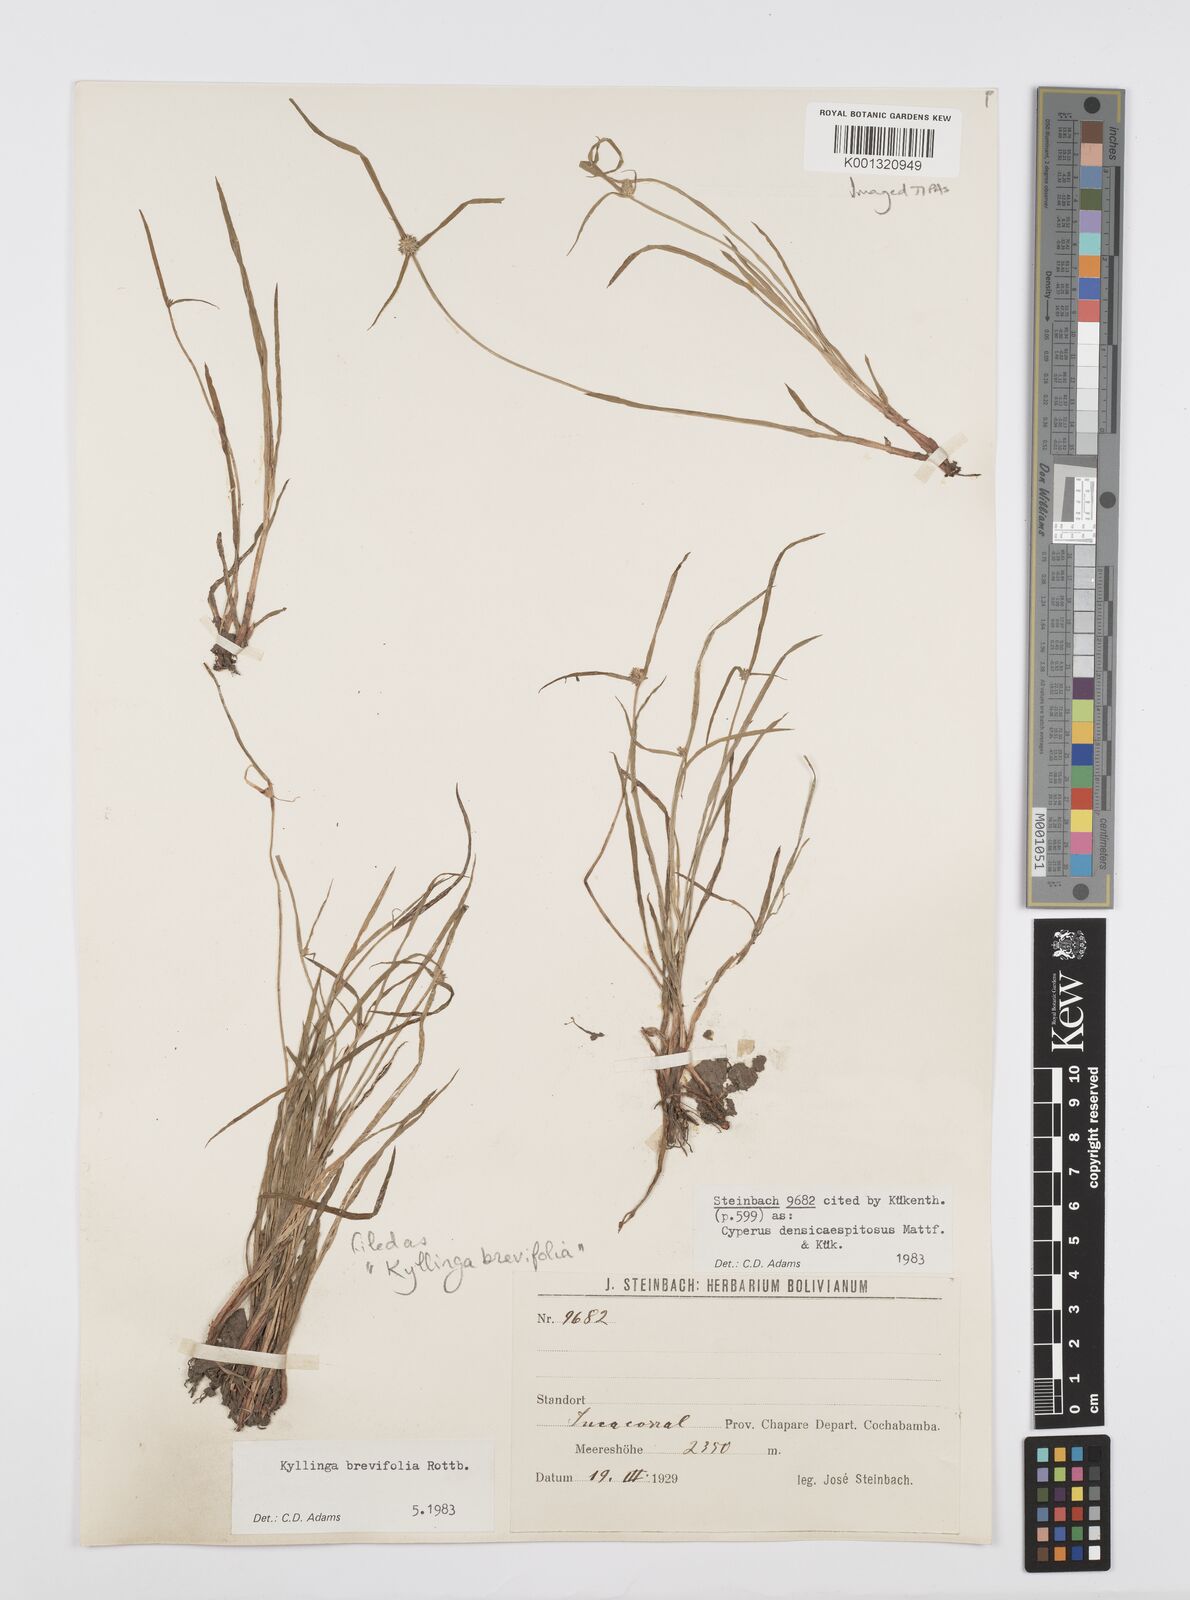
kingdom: Plantae
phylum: Tracheophyta
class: Liliopsida
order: Poales
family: Cyperaceae
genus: Cyperus
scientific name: Cyperus brevifolius
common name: Globe kyllinga
